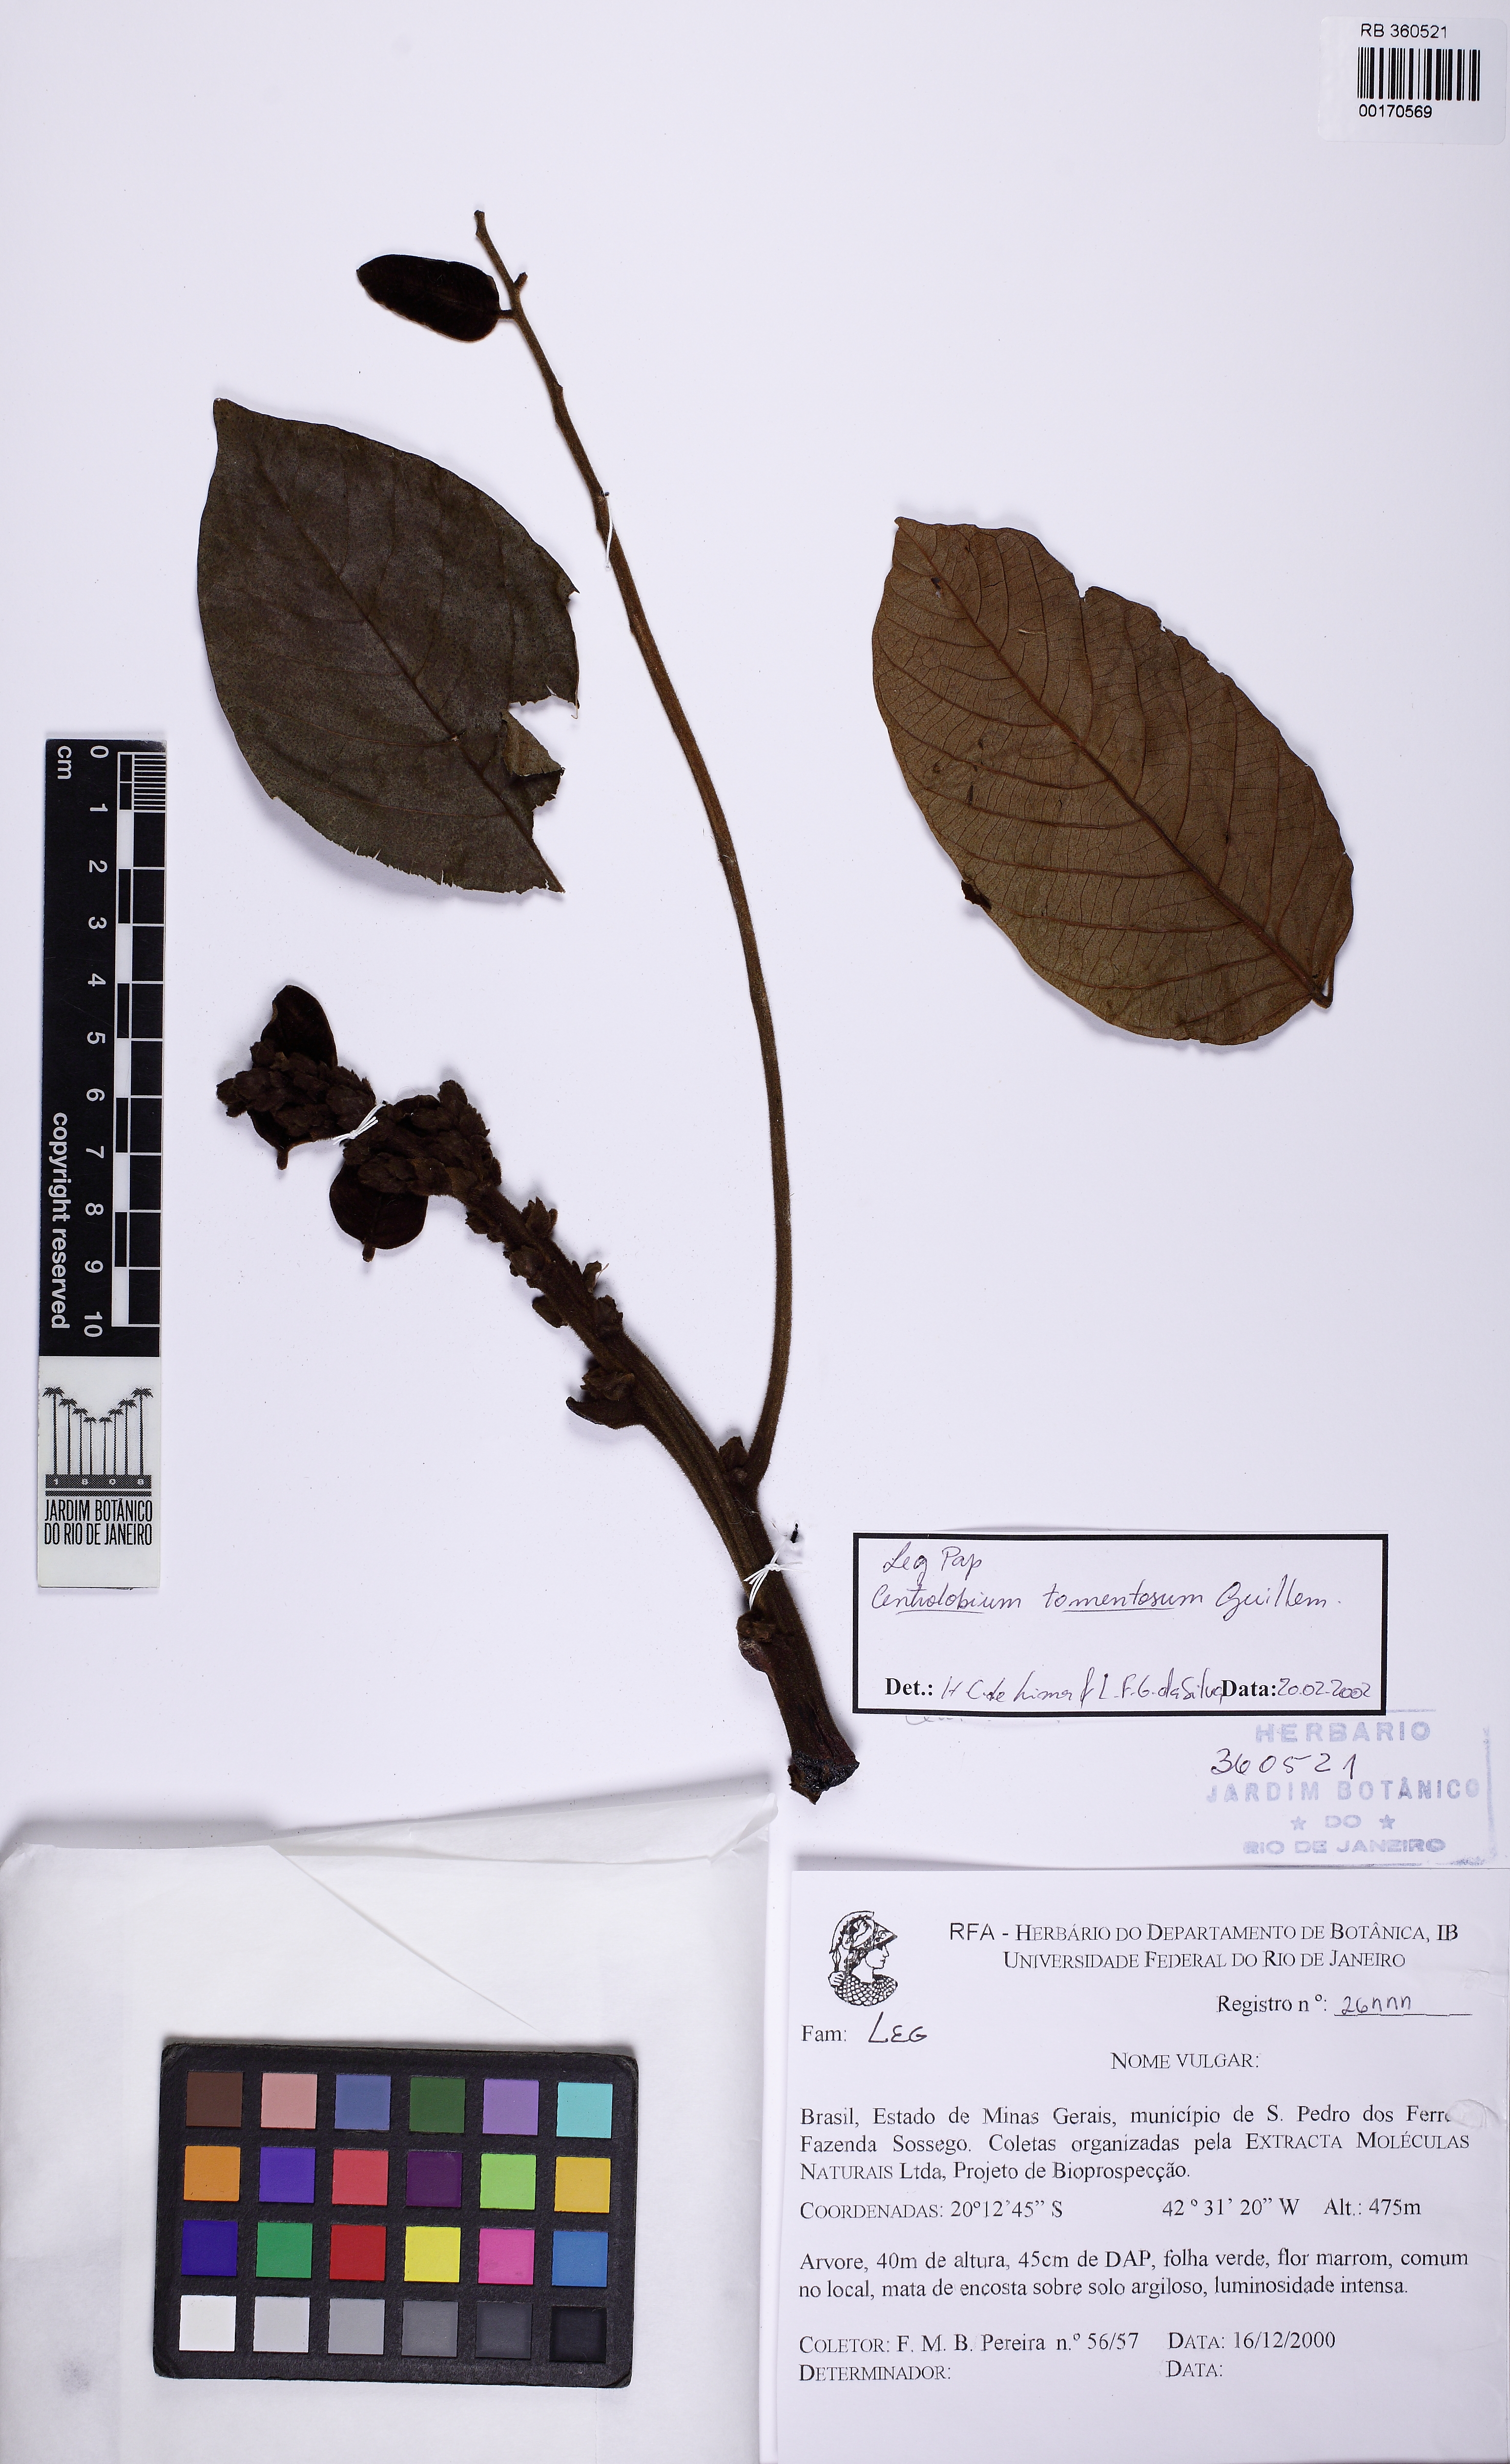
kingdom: Plantae
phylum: Tracheophyta
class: Magnoliopsida
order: Fabales
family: Fabaceae
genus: Centrolobium
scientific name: Centrolobium tomentosum
